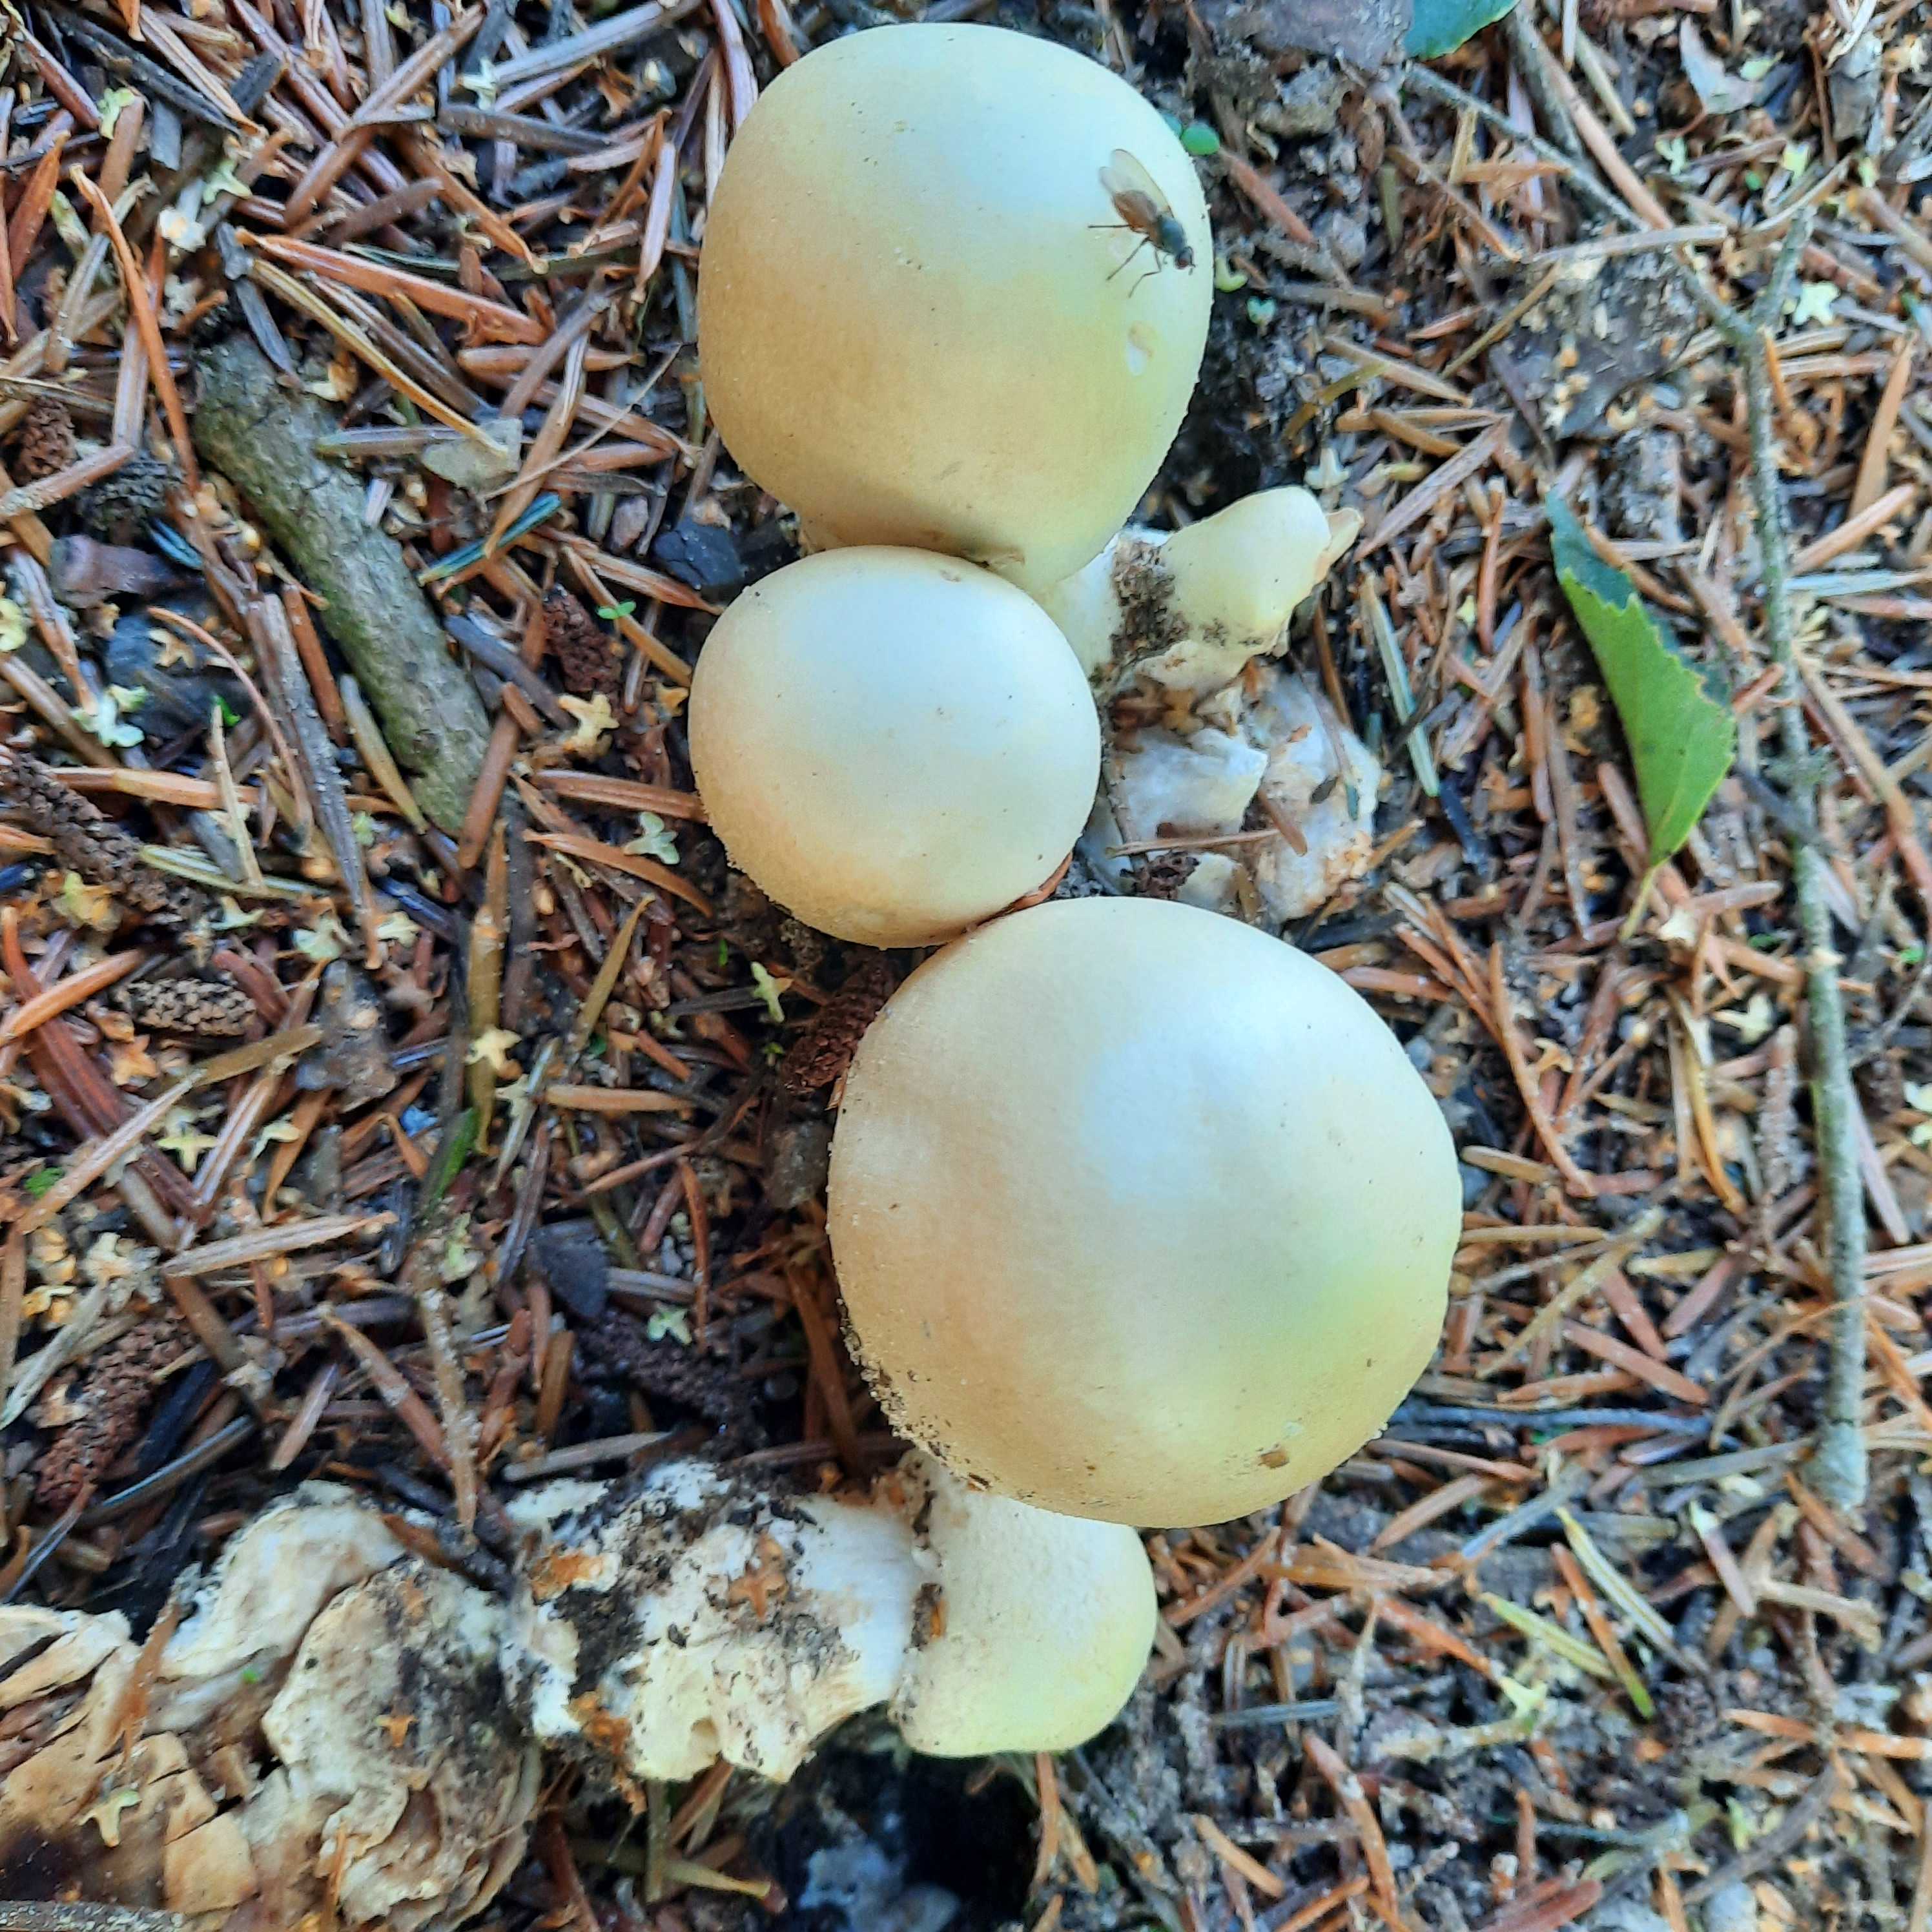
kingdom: Fungi
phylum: Basidiomycota
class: Agaricomycetes
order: Agaricales
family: Agaricaceae
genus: Agaricus
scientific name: Agaricus
